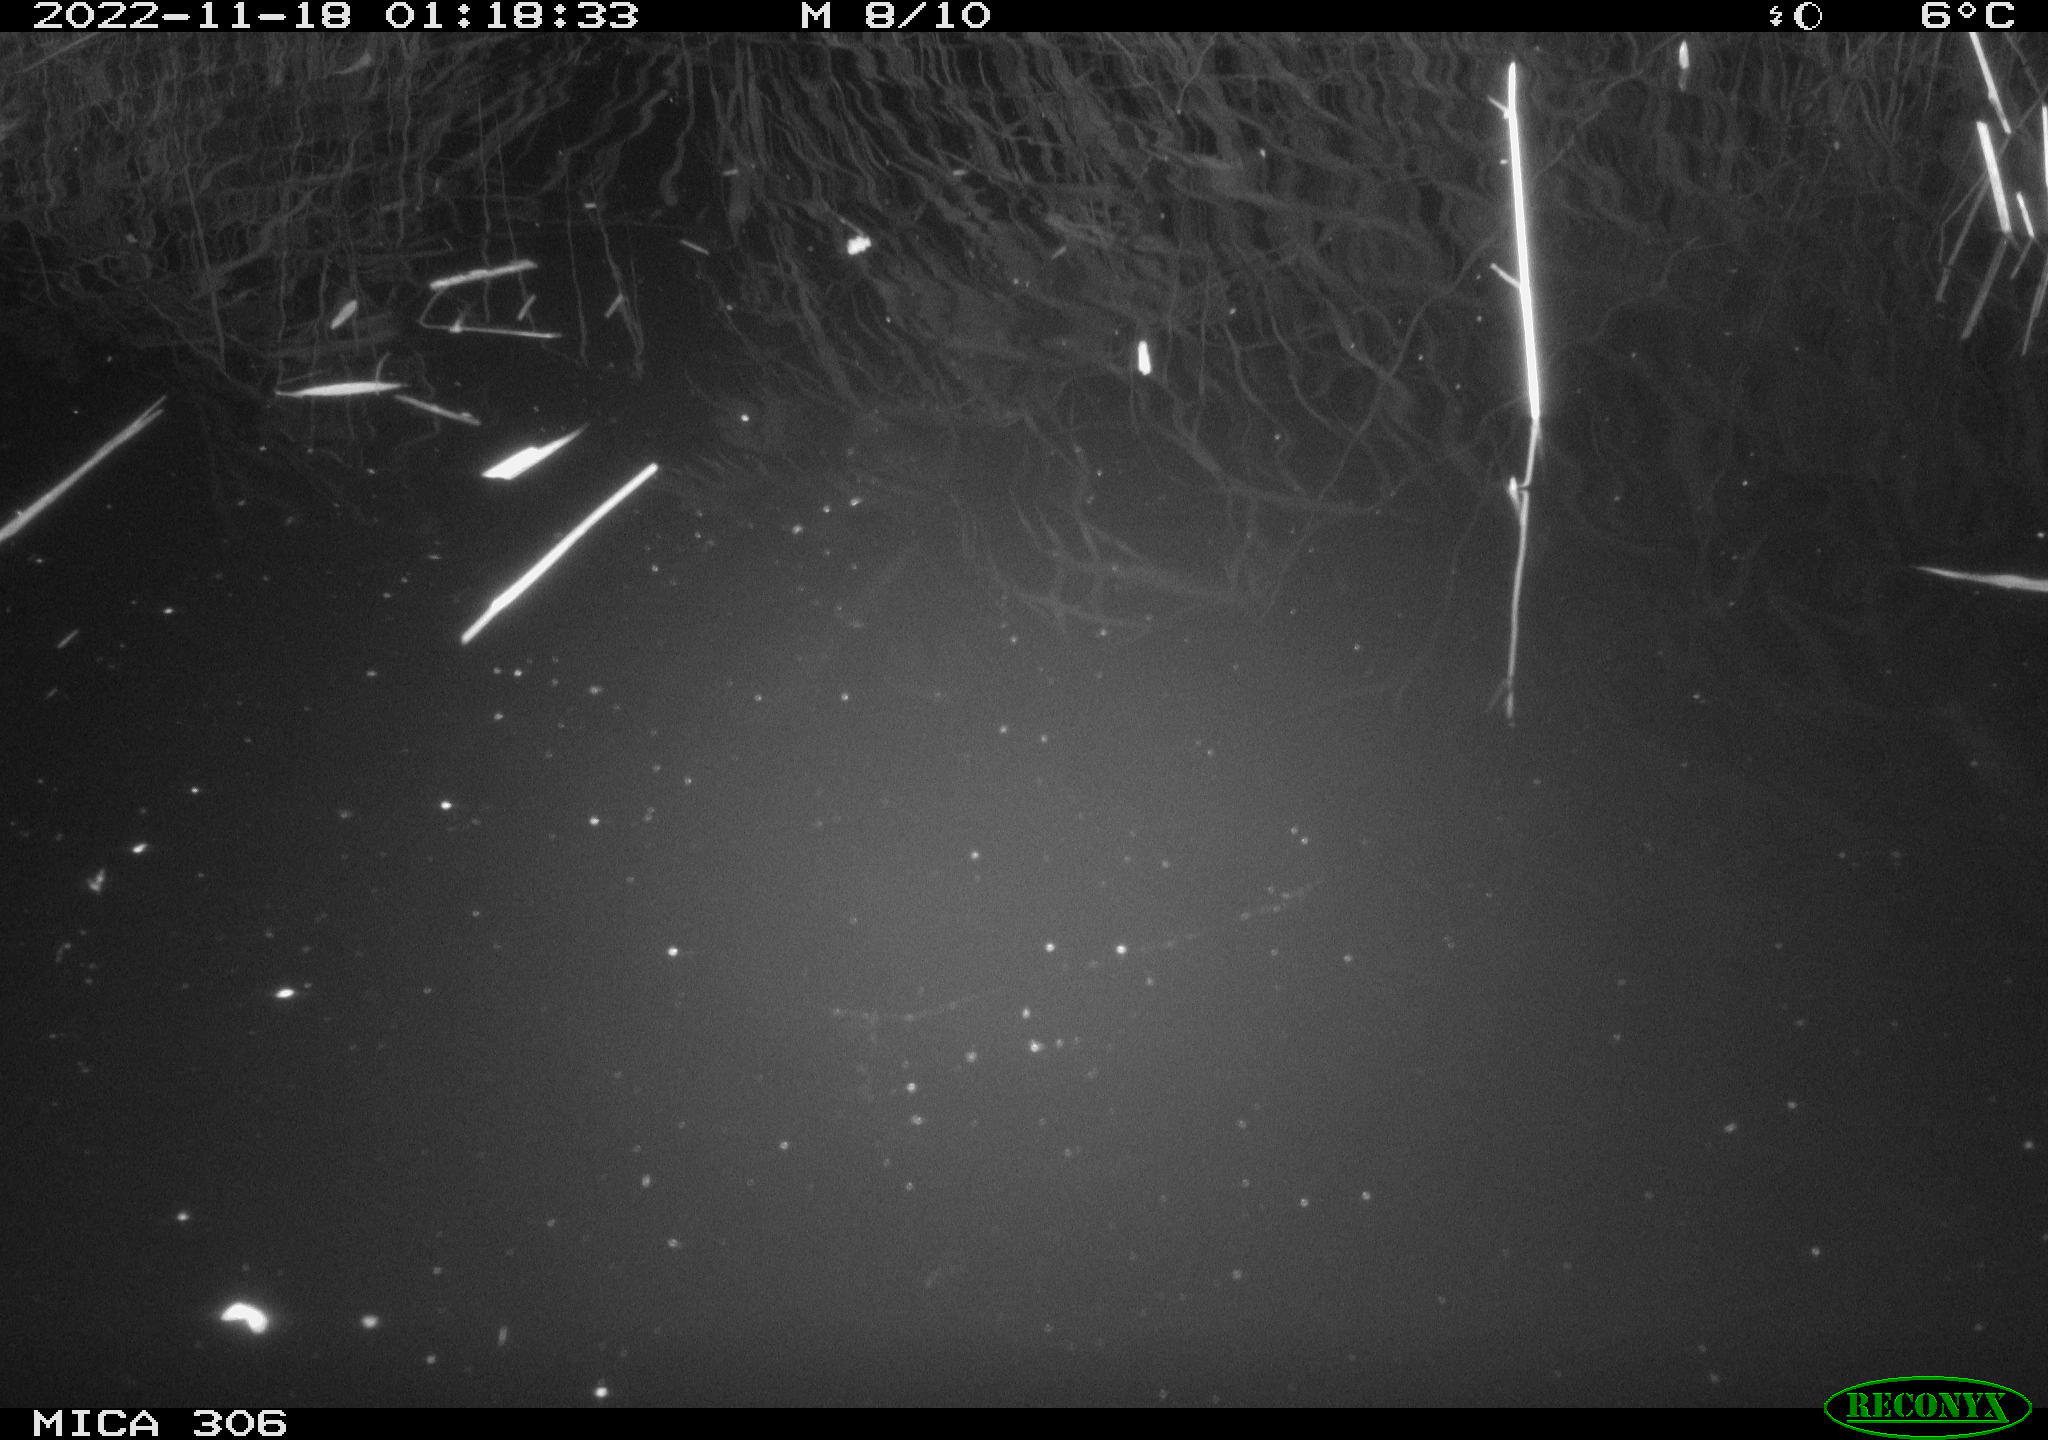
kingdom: Animalia
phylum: Chordata
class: Mammalia
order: Rodentia
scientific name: Rodentia
